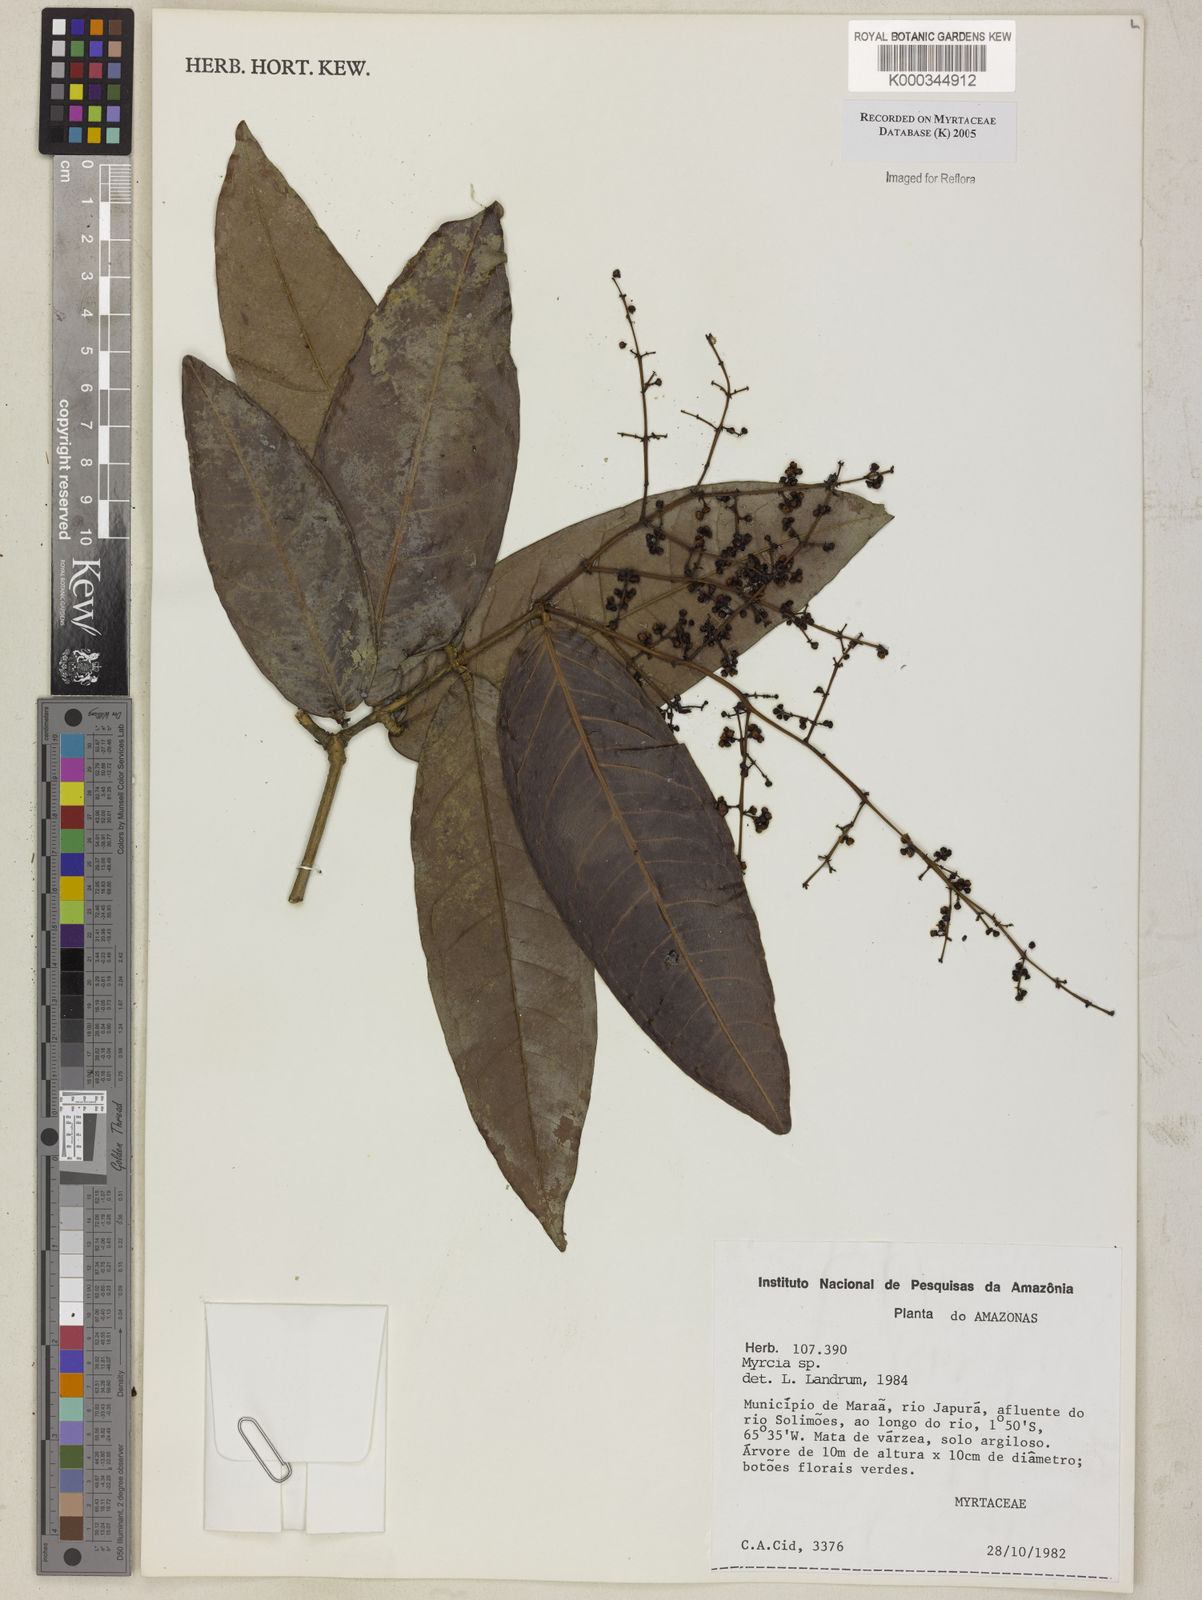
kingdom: Plantae
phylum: Tracheophyta
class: Magnoliopsida
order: Myrtales
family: Myrtaceae
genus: Myrcia
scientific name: Myrcia
